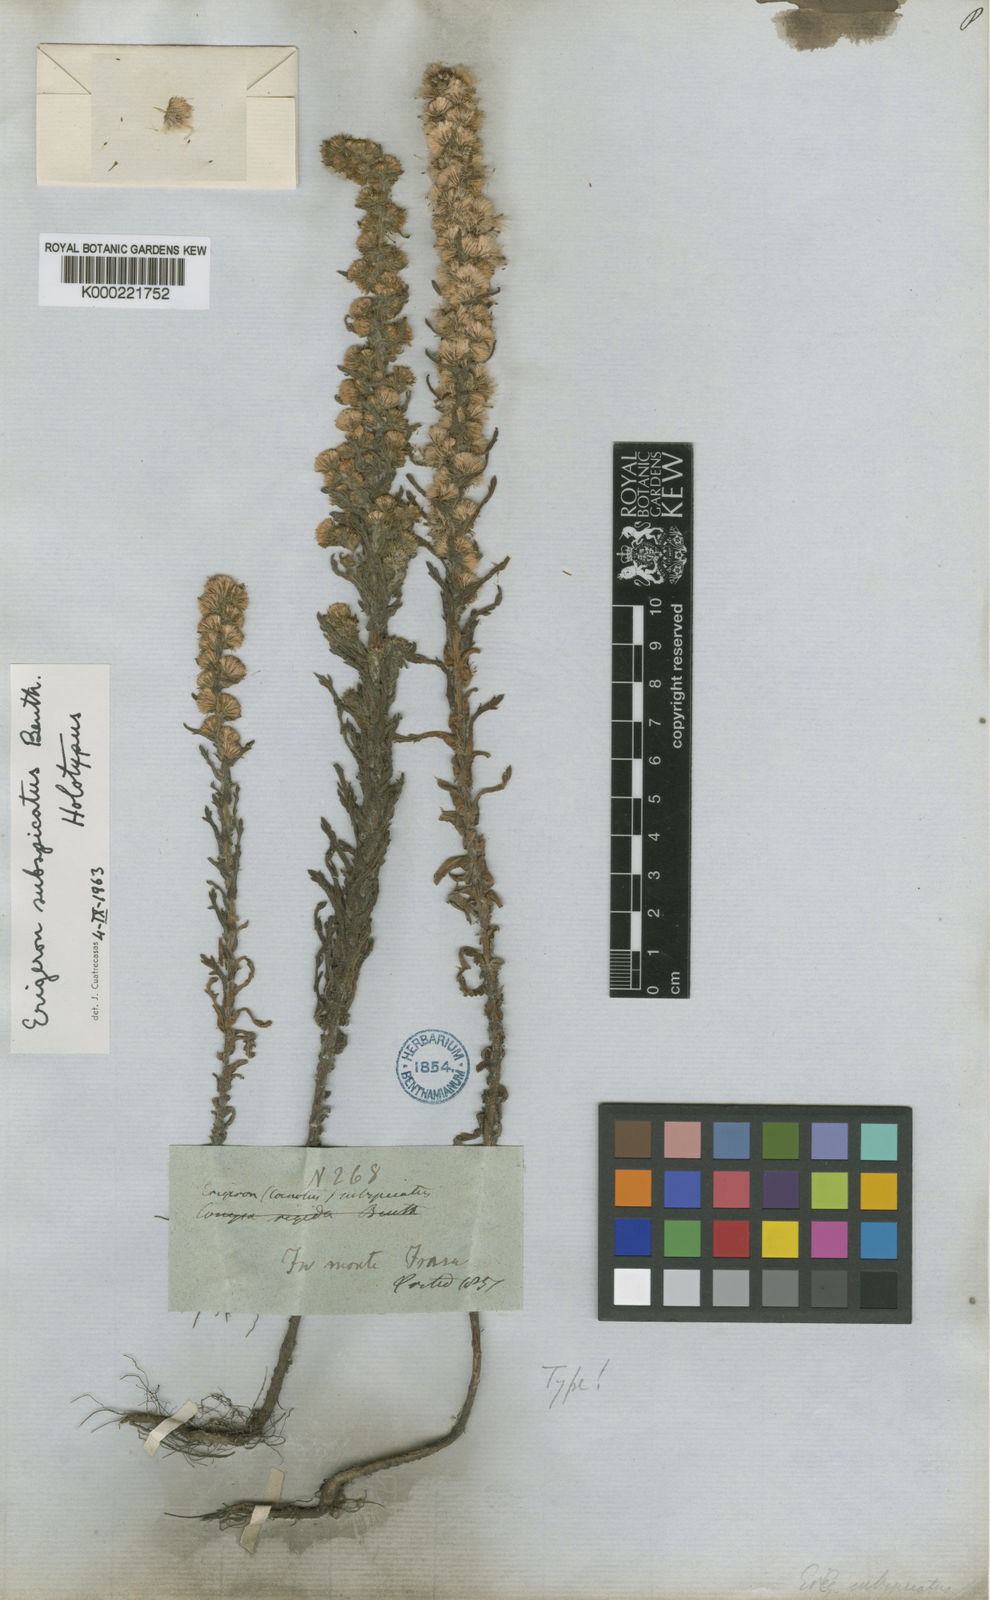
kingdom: Plantae
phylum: Tracheophyta
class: Magnoliopsida
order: Asterales
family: Asteraceae
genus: Laennecia
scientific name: Laennecia schiedeana
